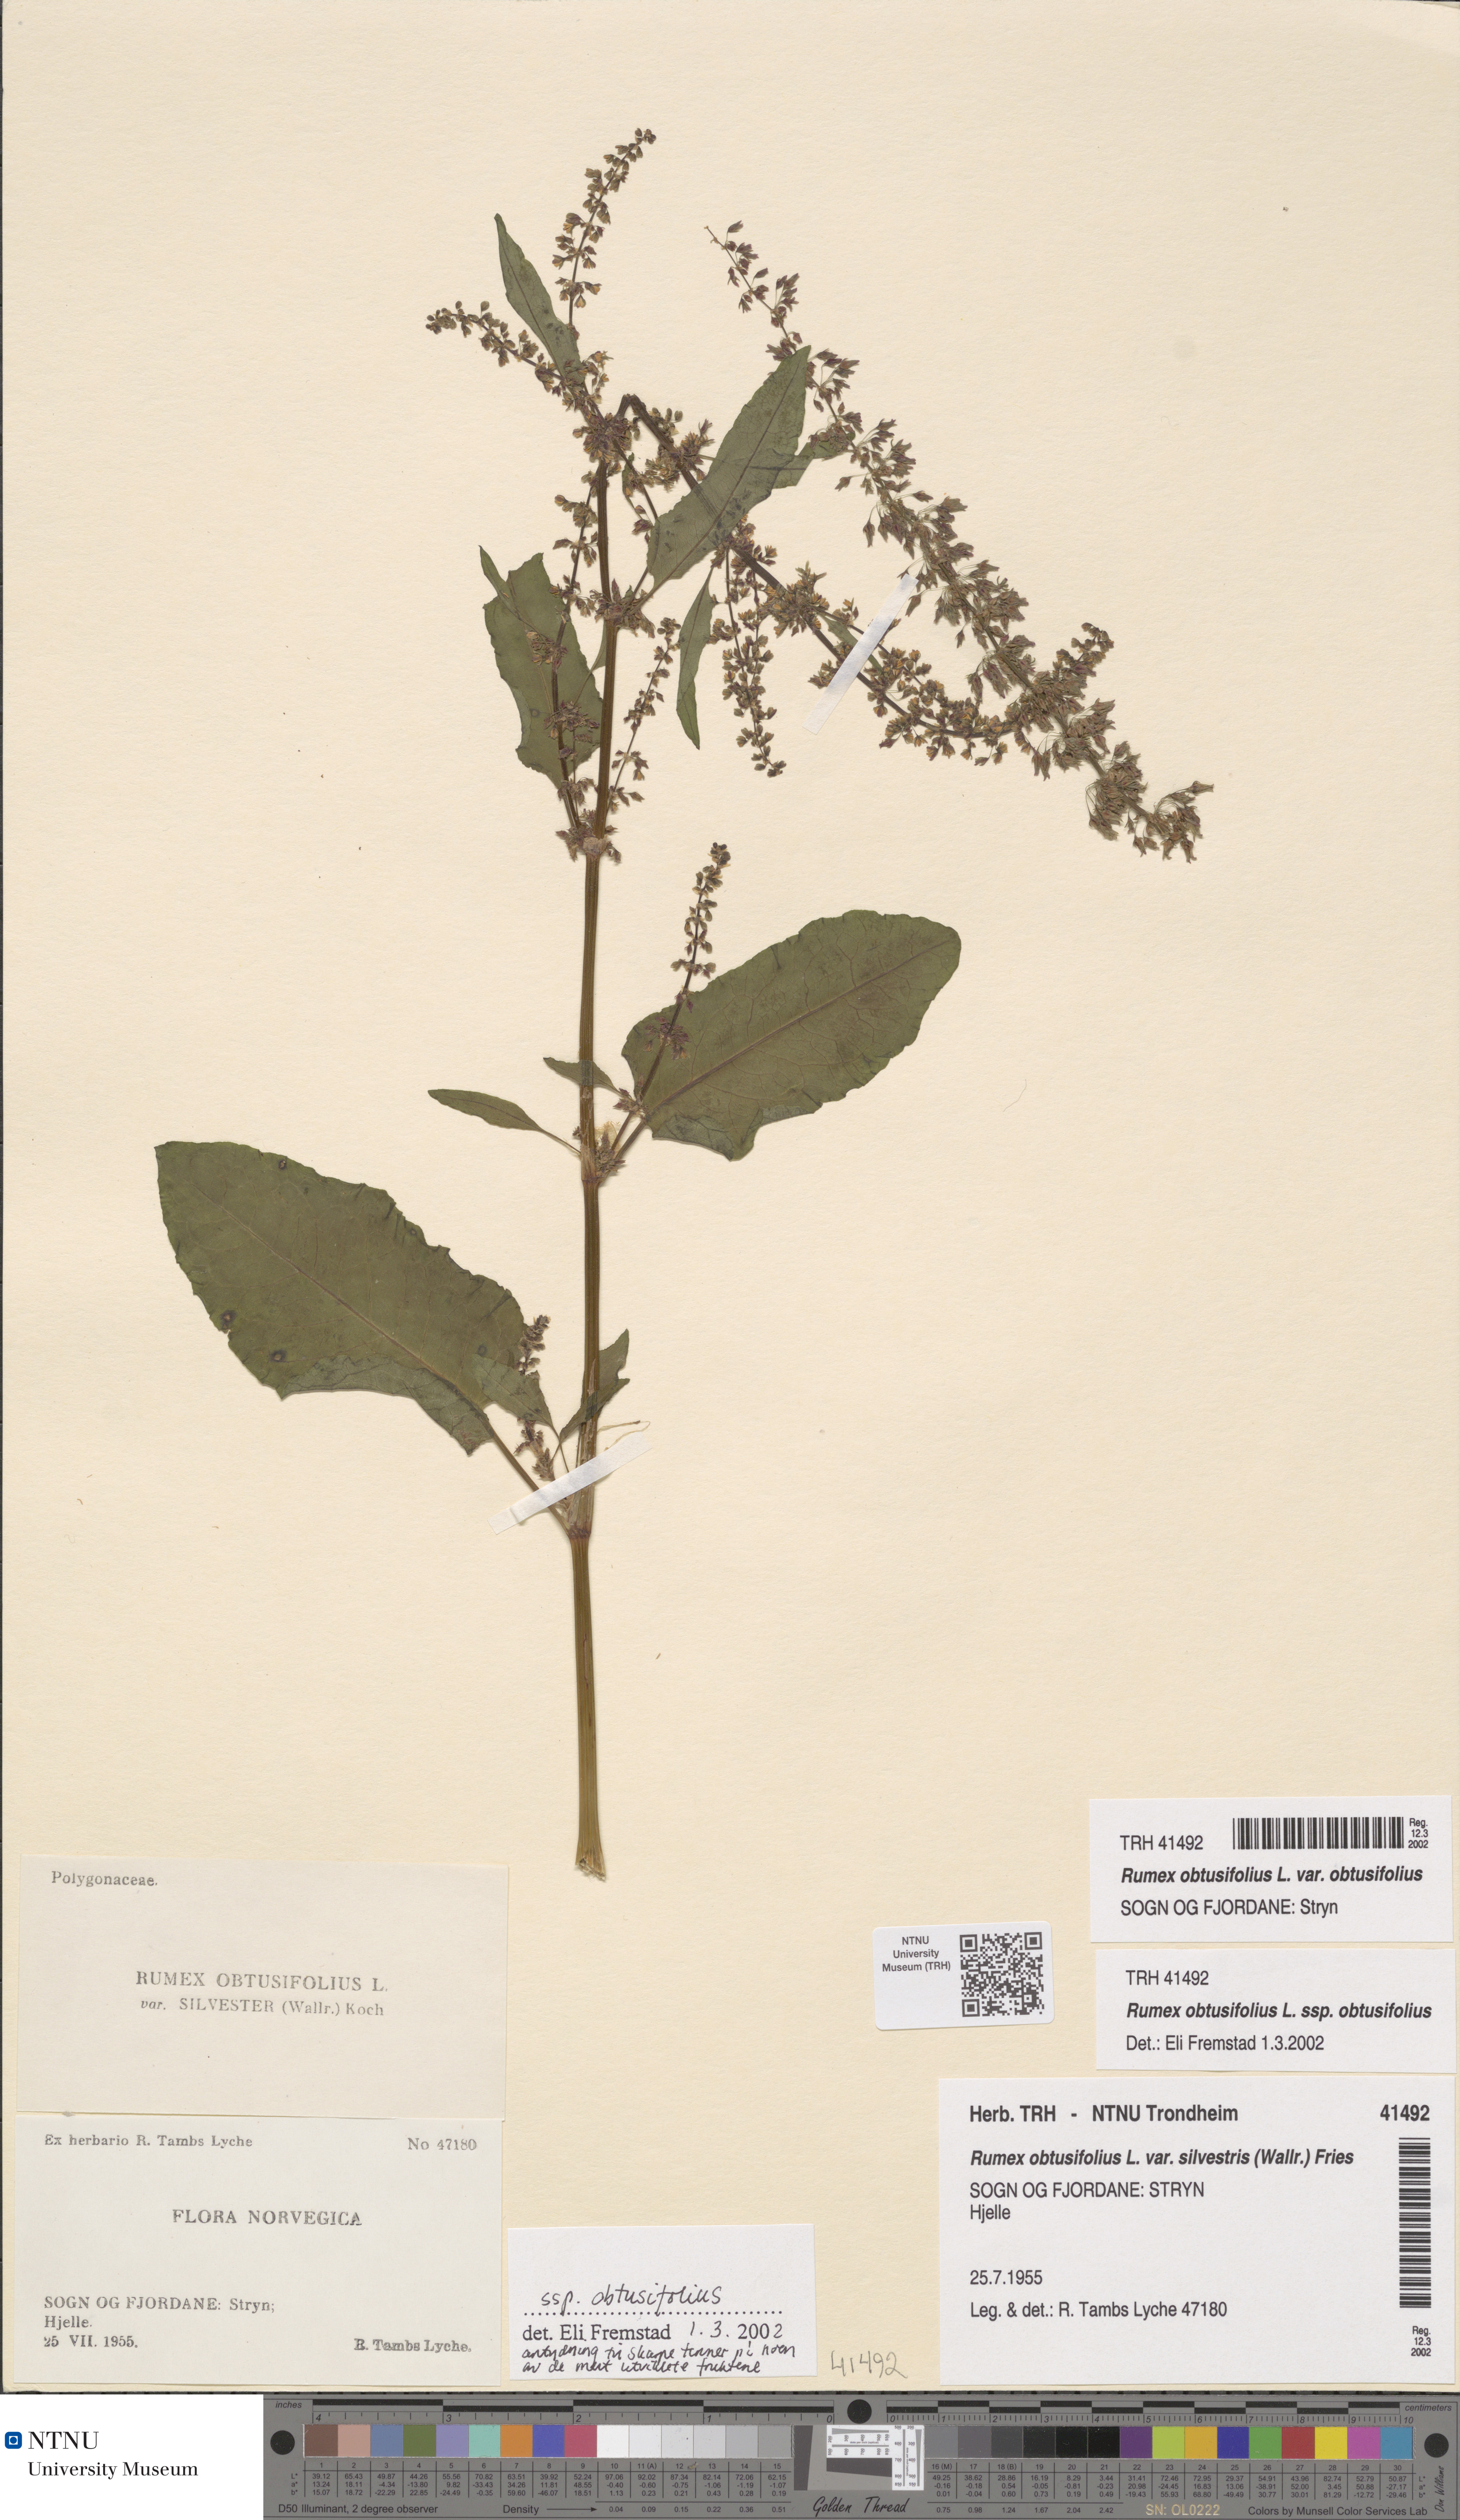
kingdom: Plantae
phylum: Tracheophyta
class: Magnoliopsida
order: Caryophyllales
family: Polygonaceae
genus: Rumex
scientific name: Rumex obtusifolius
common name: Bitter dock
